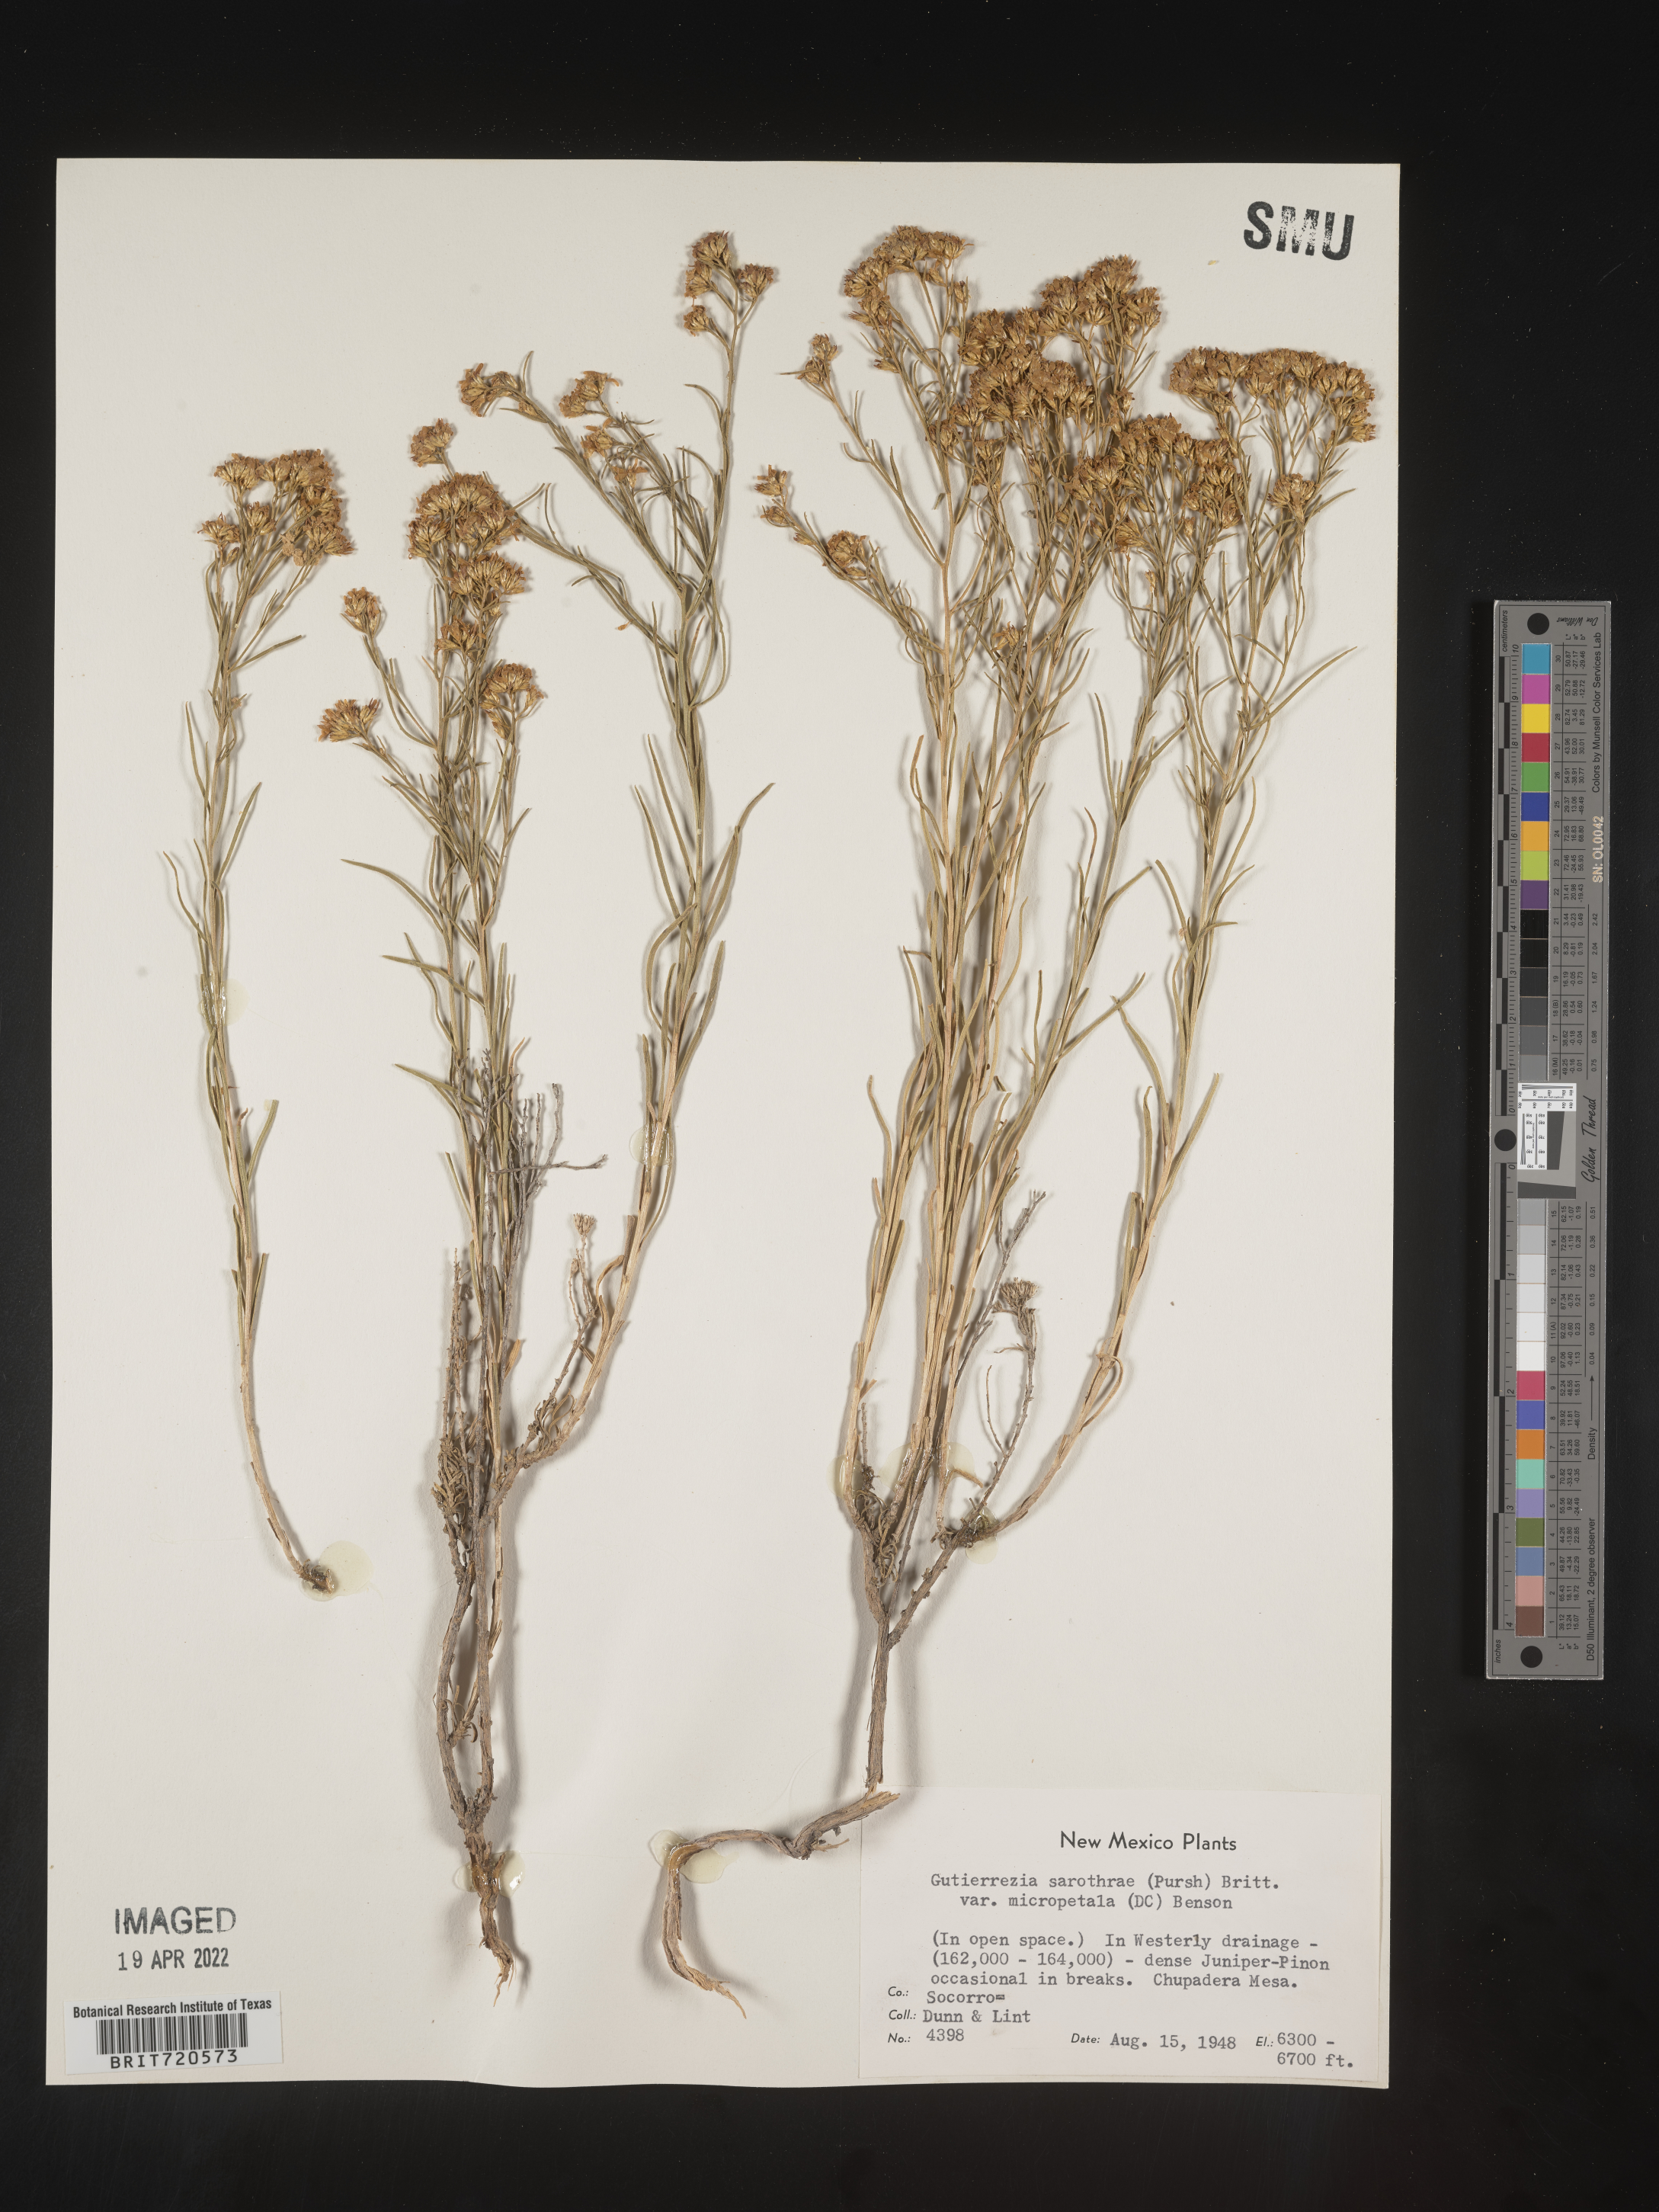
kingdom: Plantae
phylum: Tracheophyta
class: Magnoliopsida
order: Asterales
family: Asteraceae
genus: Gutierrezia
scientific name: Gutierrezia sarothrae
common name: Broom snakeweed
